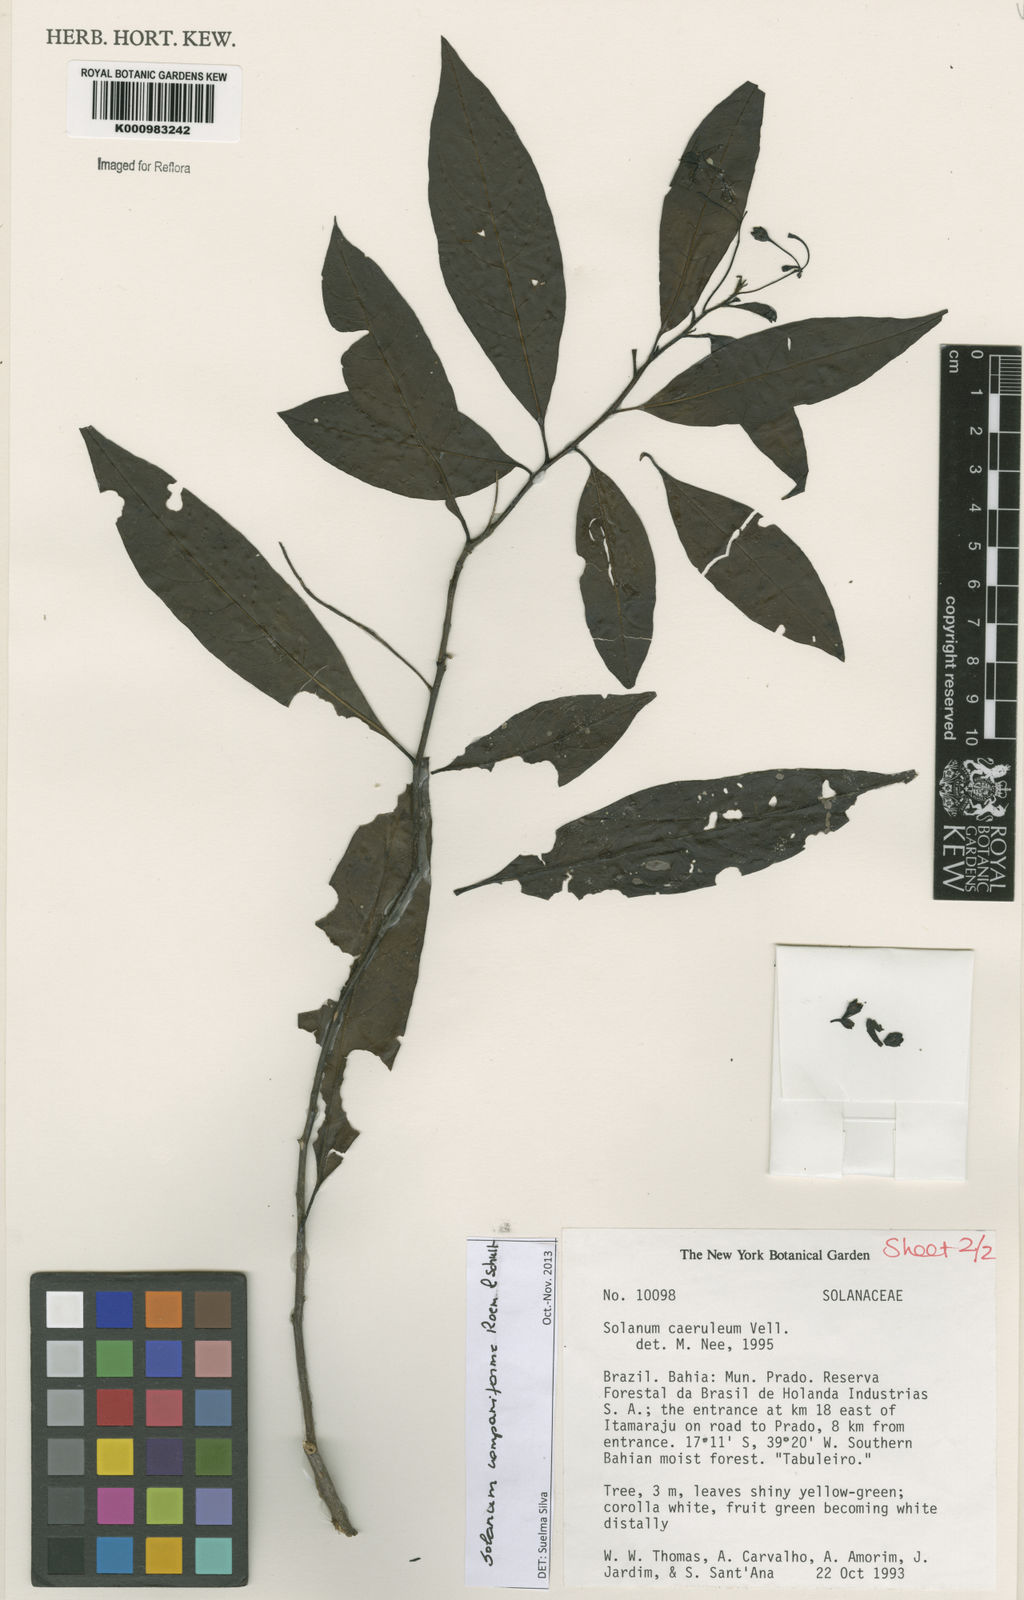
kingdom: Plantae
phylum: Tracheophyta
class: Magnoliopsida
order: Solanales
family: Solanaceae
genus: Solanum
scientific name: Solanum campaniforme
